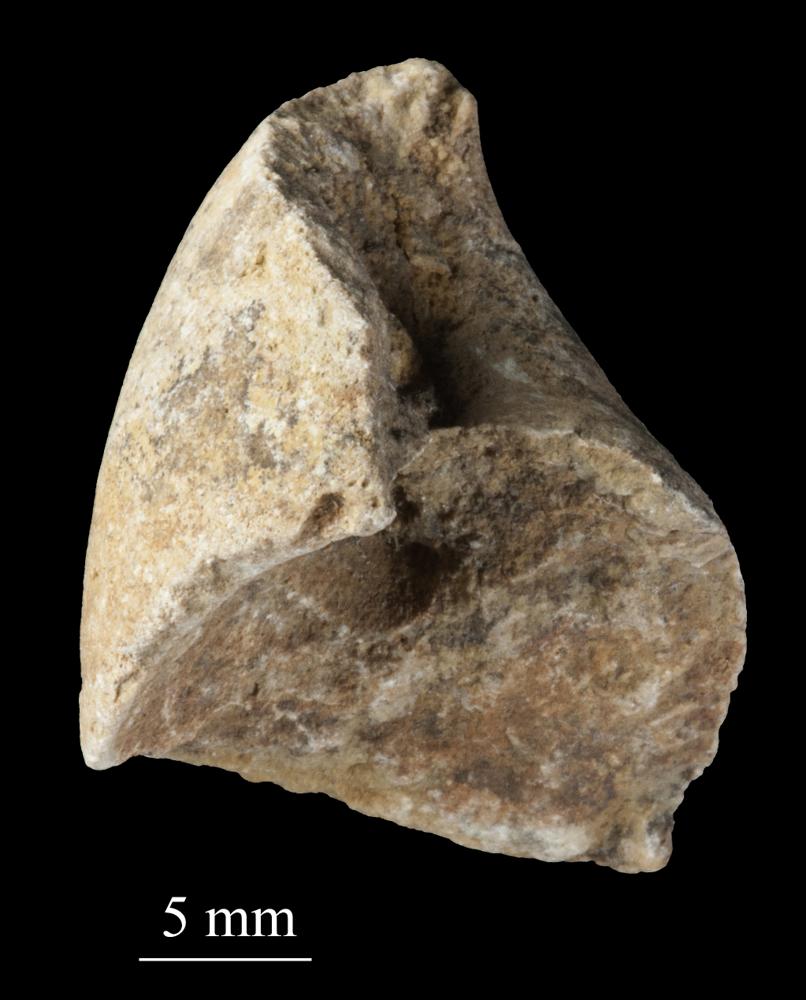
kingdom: Animalia
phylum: Mollusca
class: Gastropoda
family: Subulitidae
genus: Subulites
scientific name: Subulites amphora
